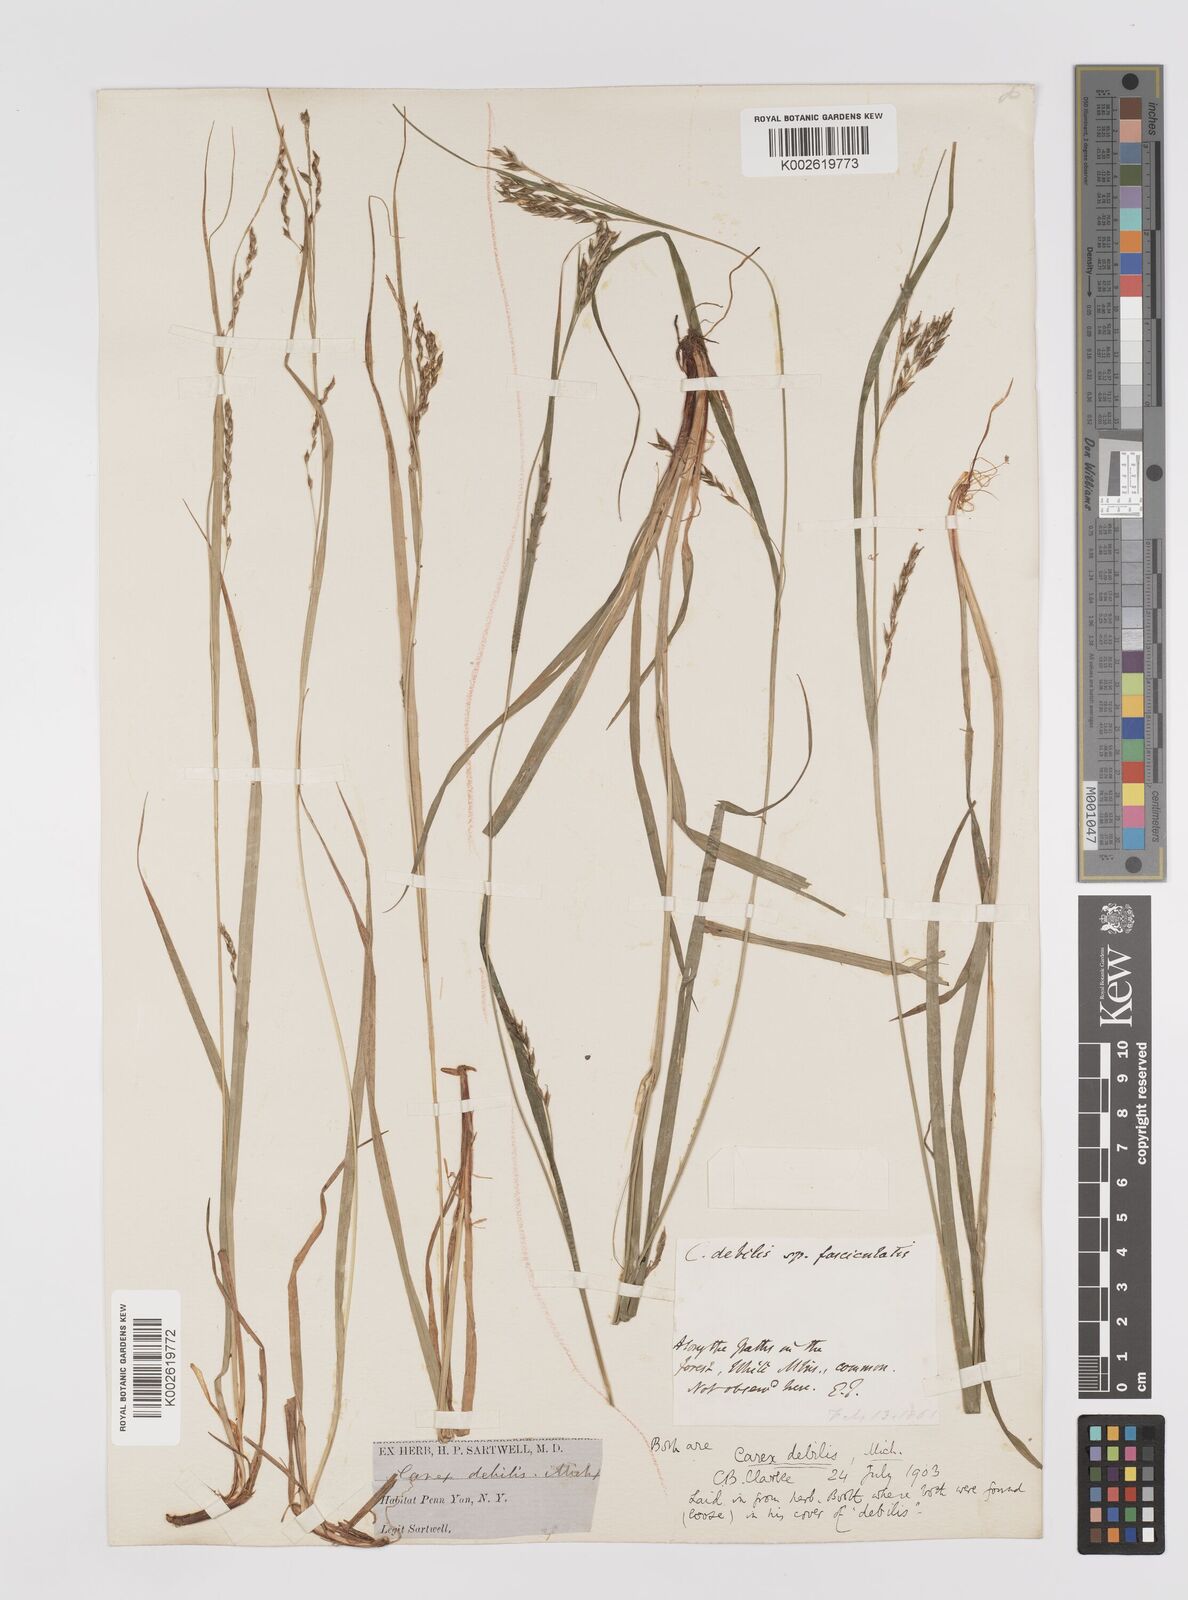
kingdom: Plantae
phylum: Tracheophyta
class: Liliopsida
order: Poales
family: Cyperaceae
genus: Carex
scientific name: Carex debilis
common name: White-edge sedge
